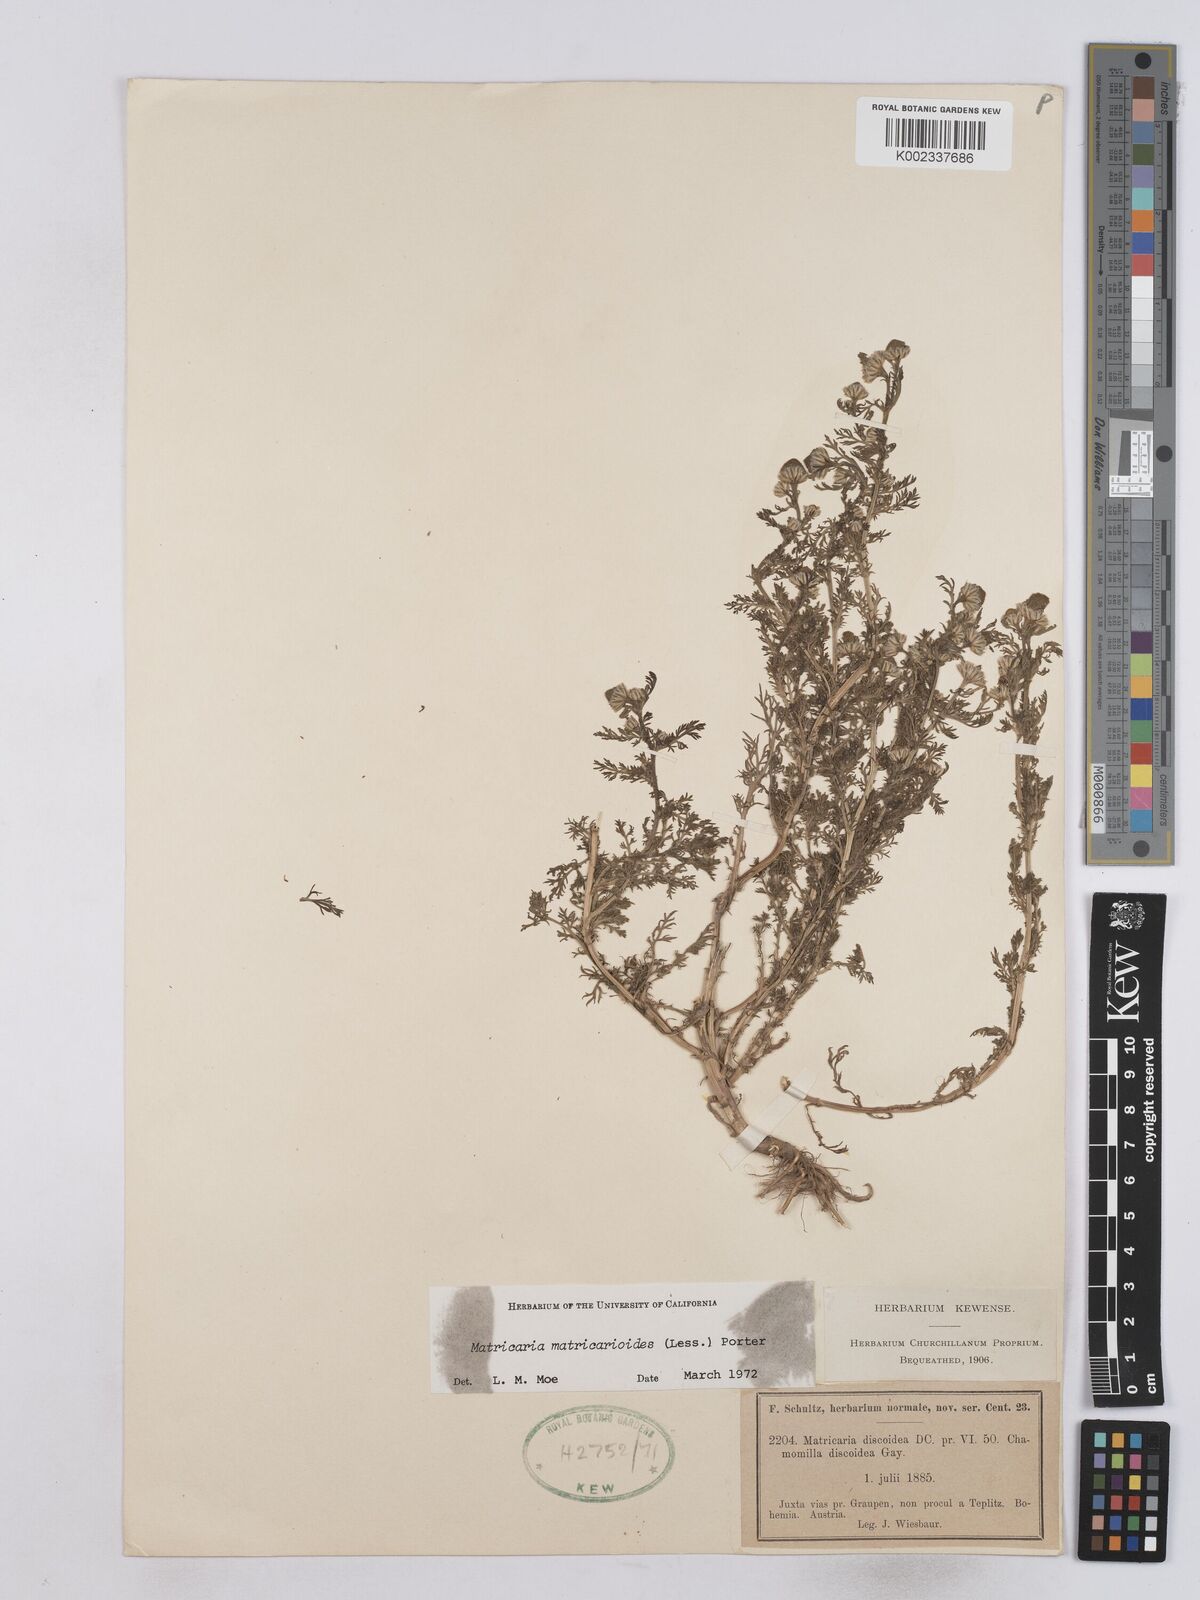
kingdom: Plantae
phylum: Tracheophyta
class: Magnoliopsida
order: Asterales
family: Asteraceae
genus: Matricaria
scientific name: Matricaria discoidea
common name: Disc mayweed
